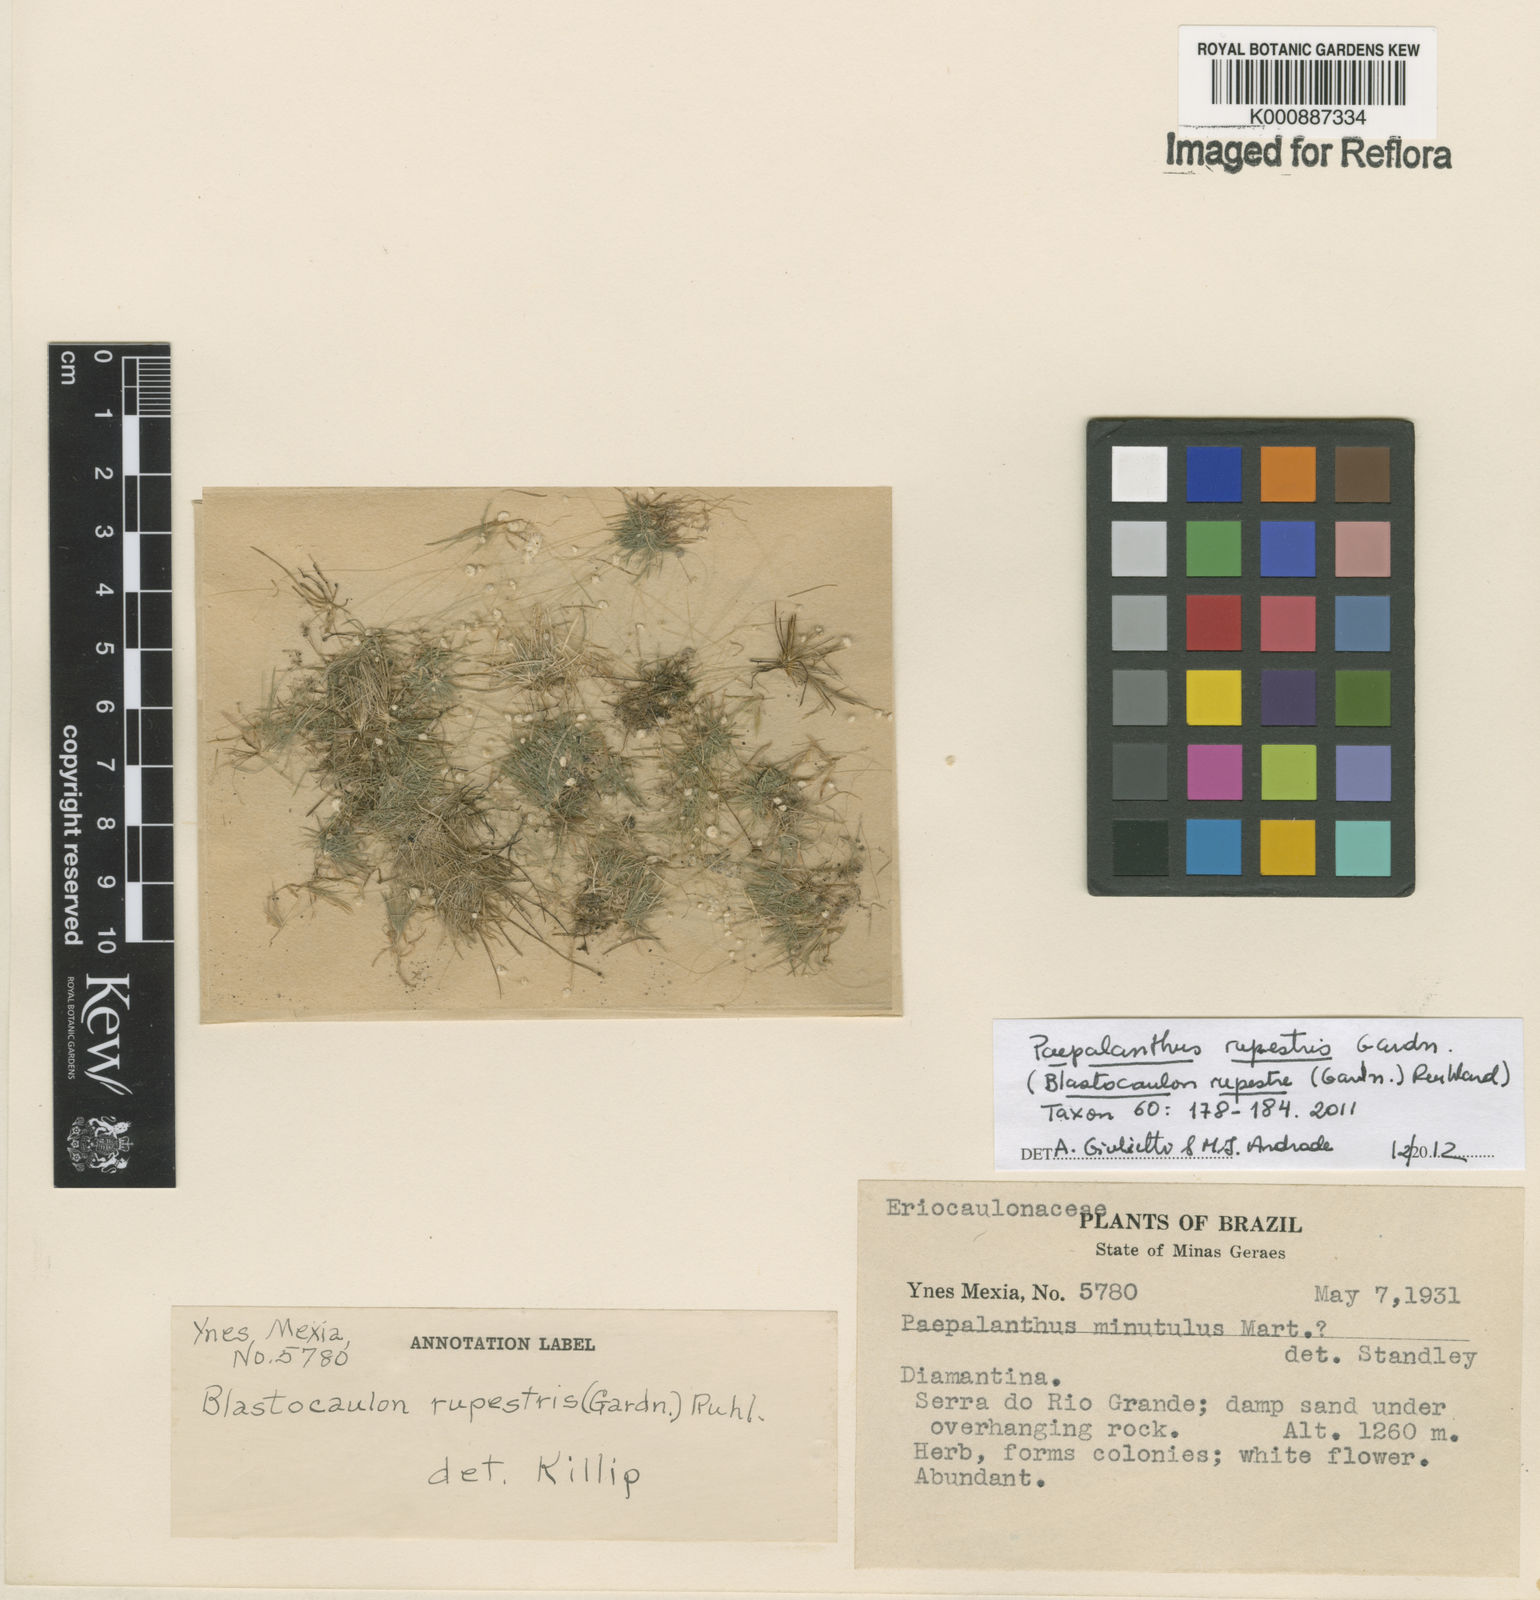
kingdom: Plantae
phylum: Tracheophyta
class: Liliopsida
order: Poales
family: Eriocaulaceae
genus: Paepalanthus
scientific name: Paepalanthus rupestris
